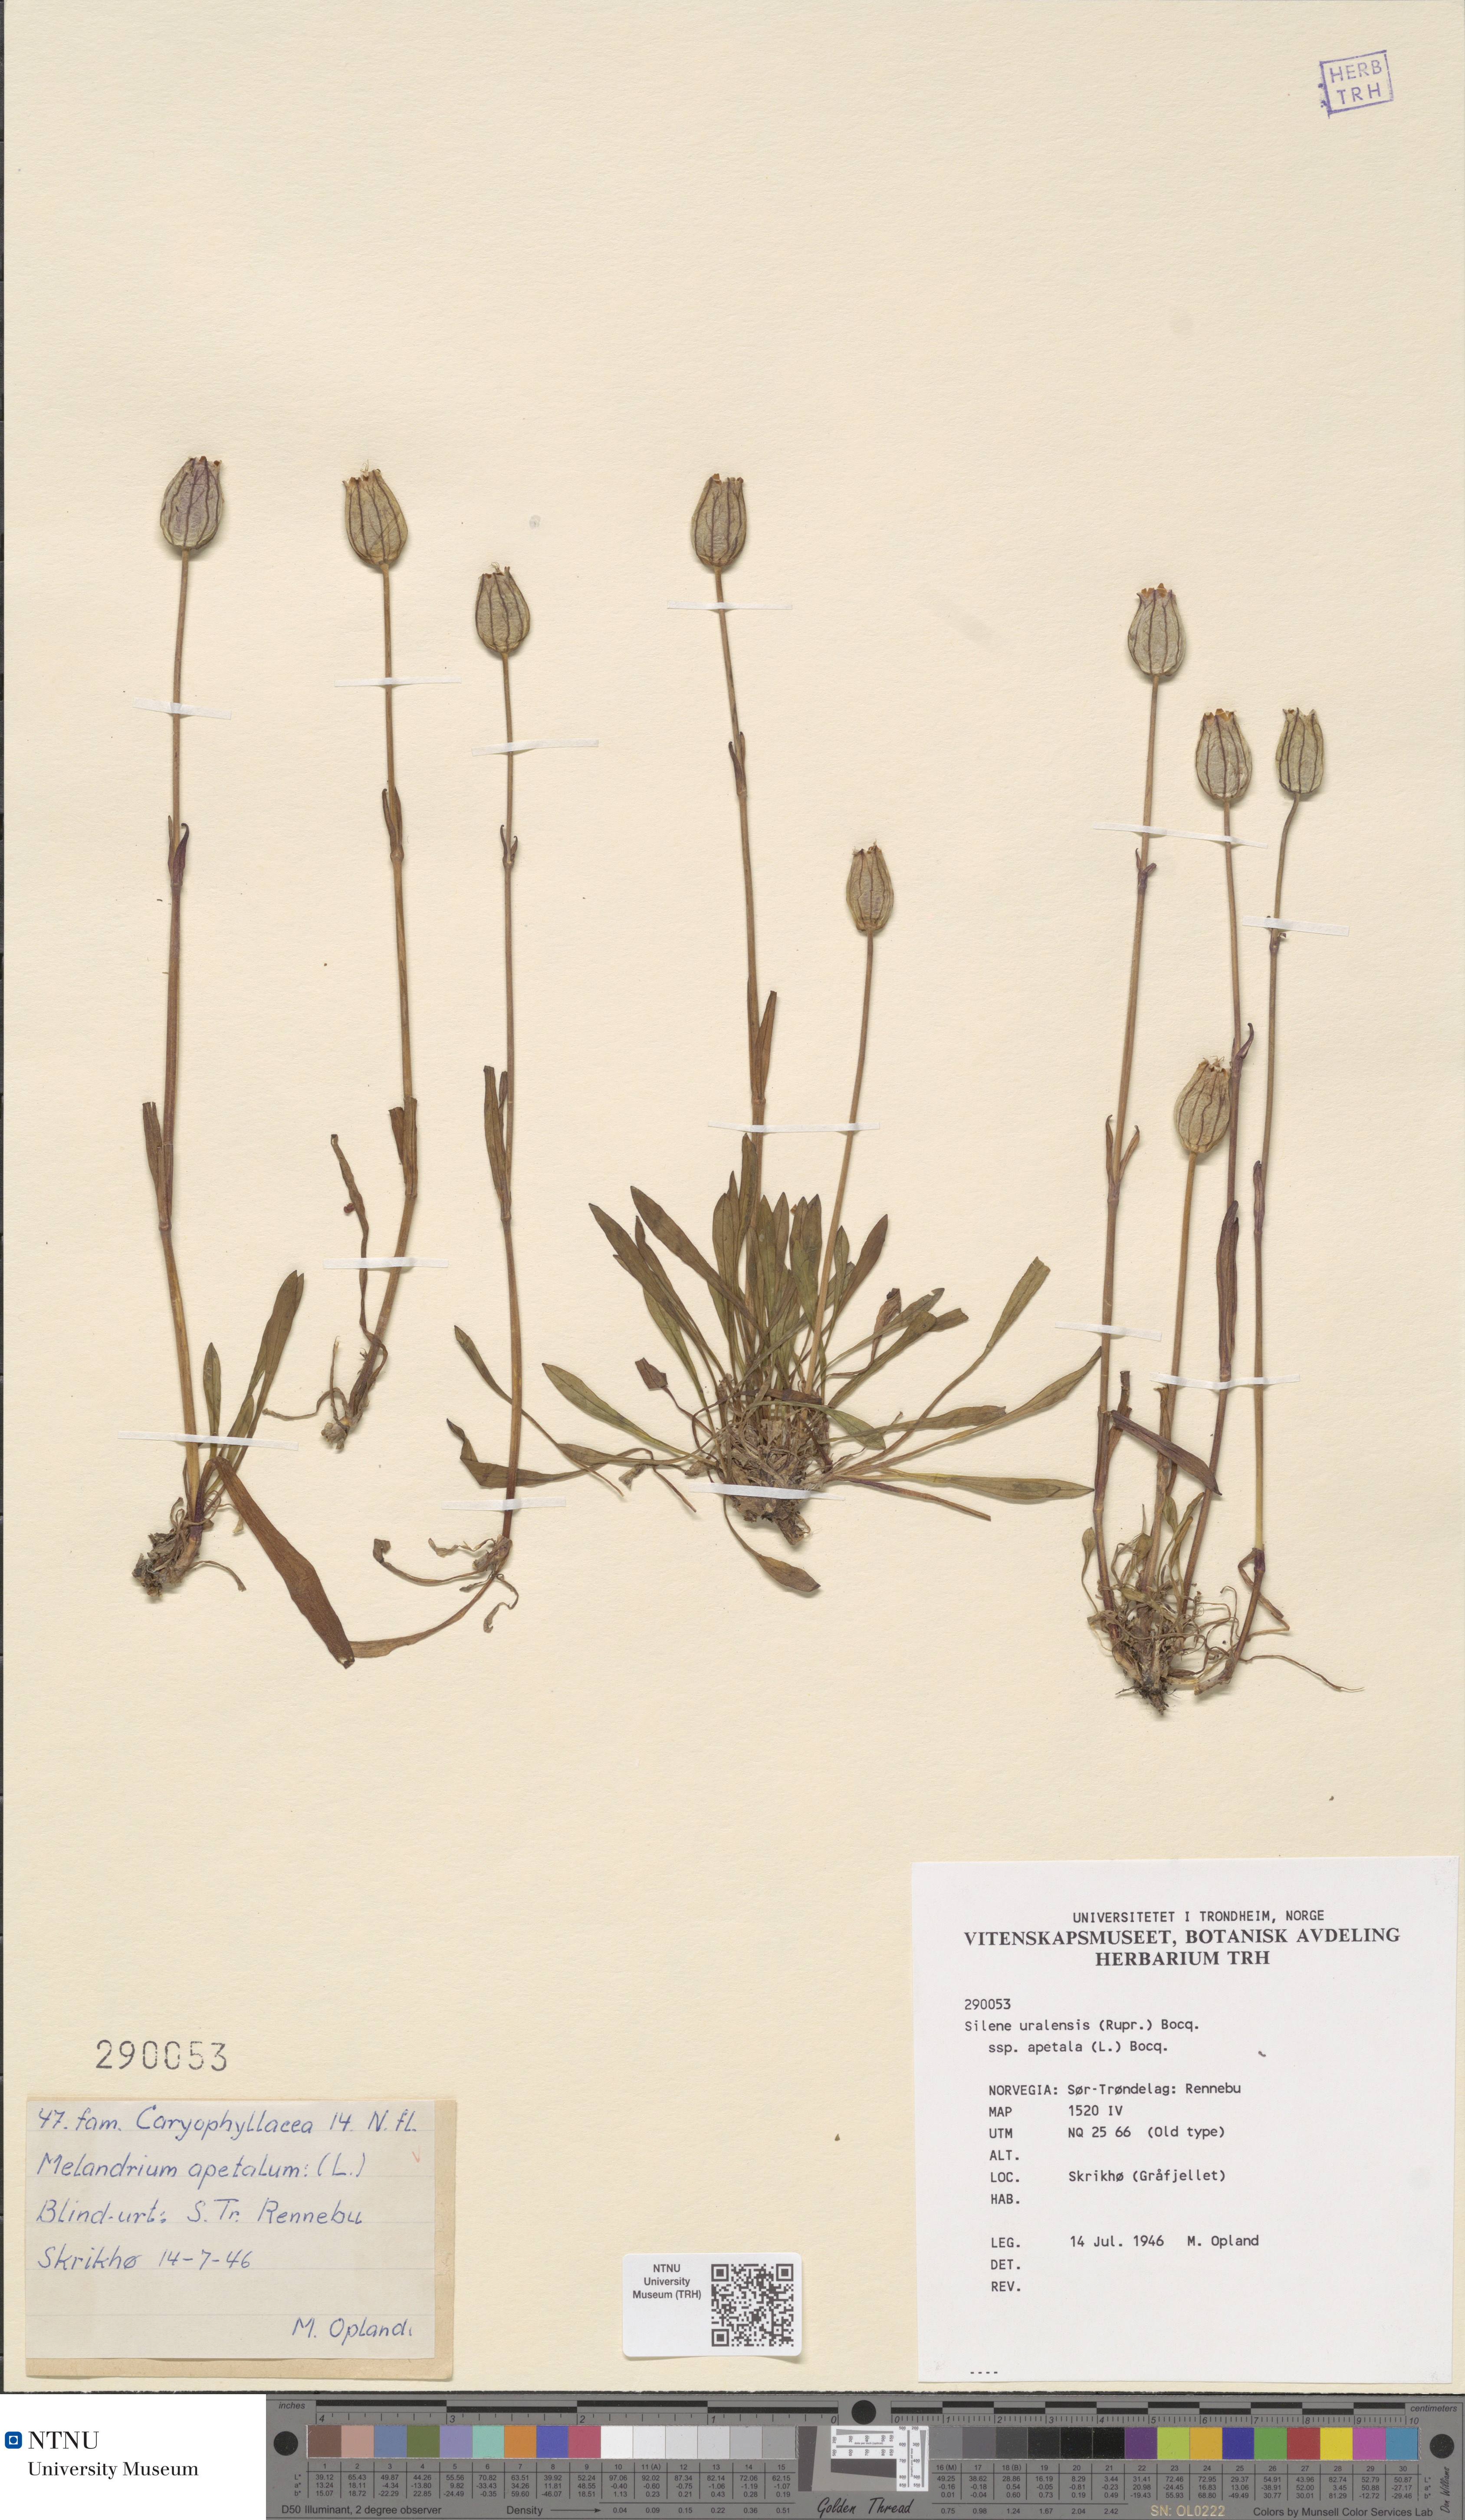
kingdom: Plantae
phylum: Tracheophyta
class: Magnoliopsida
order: Caryophyllales
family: Caryophyllaceae
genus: Silene
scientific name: Silene wahlbergella
